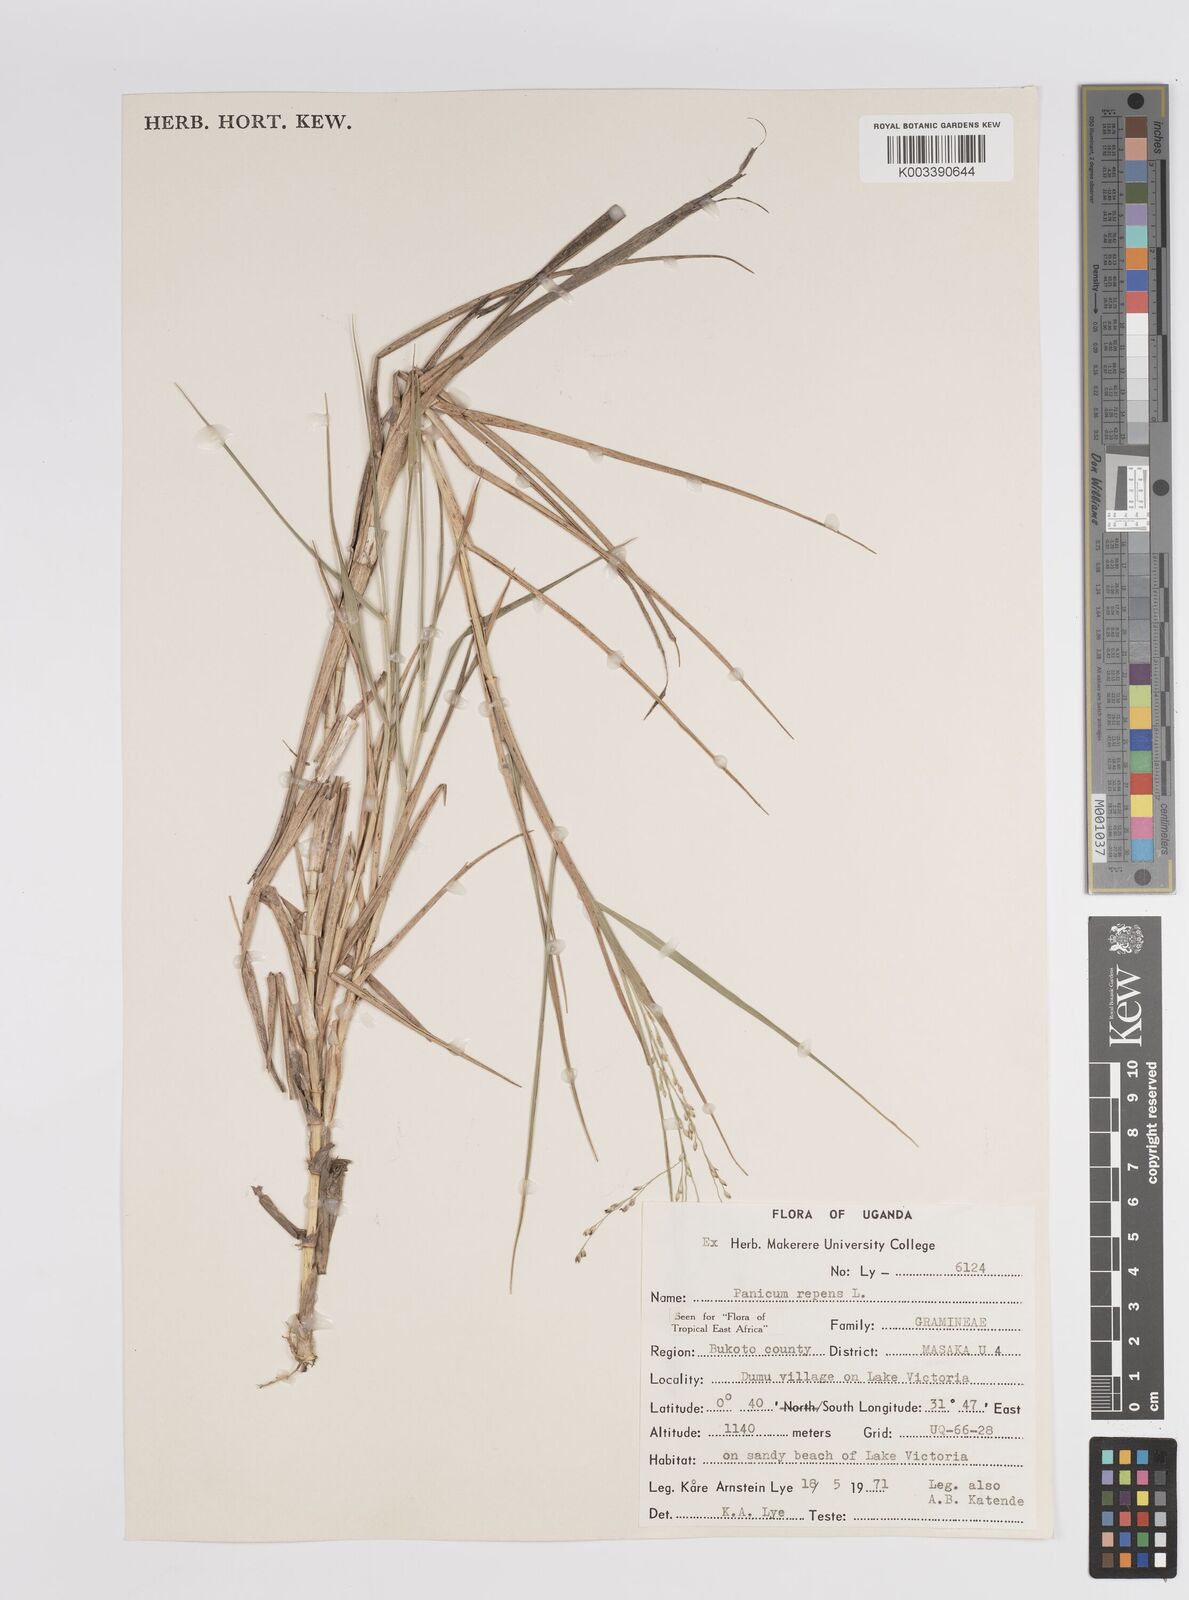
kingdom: Plantae
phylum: Tracheophyta
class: Liliopsida
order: Poales
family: Poaceae
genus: Panicum
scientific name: Panicum repens
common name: Torpedo grass
